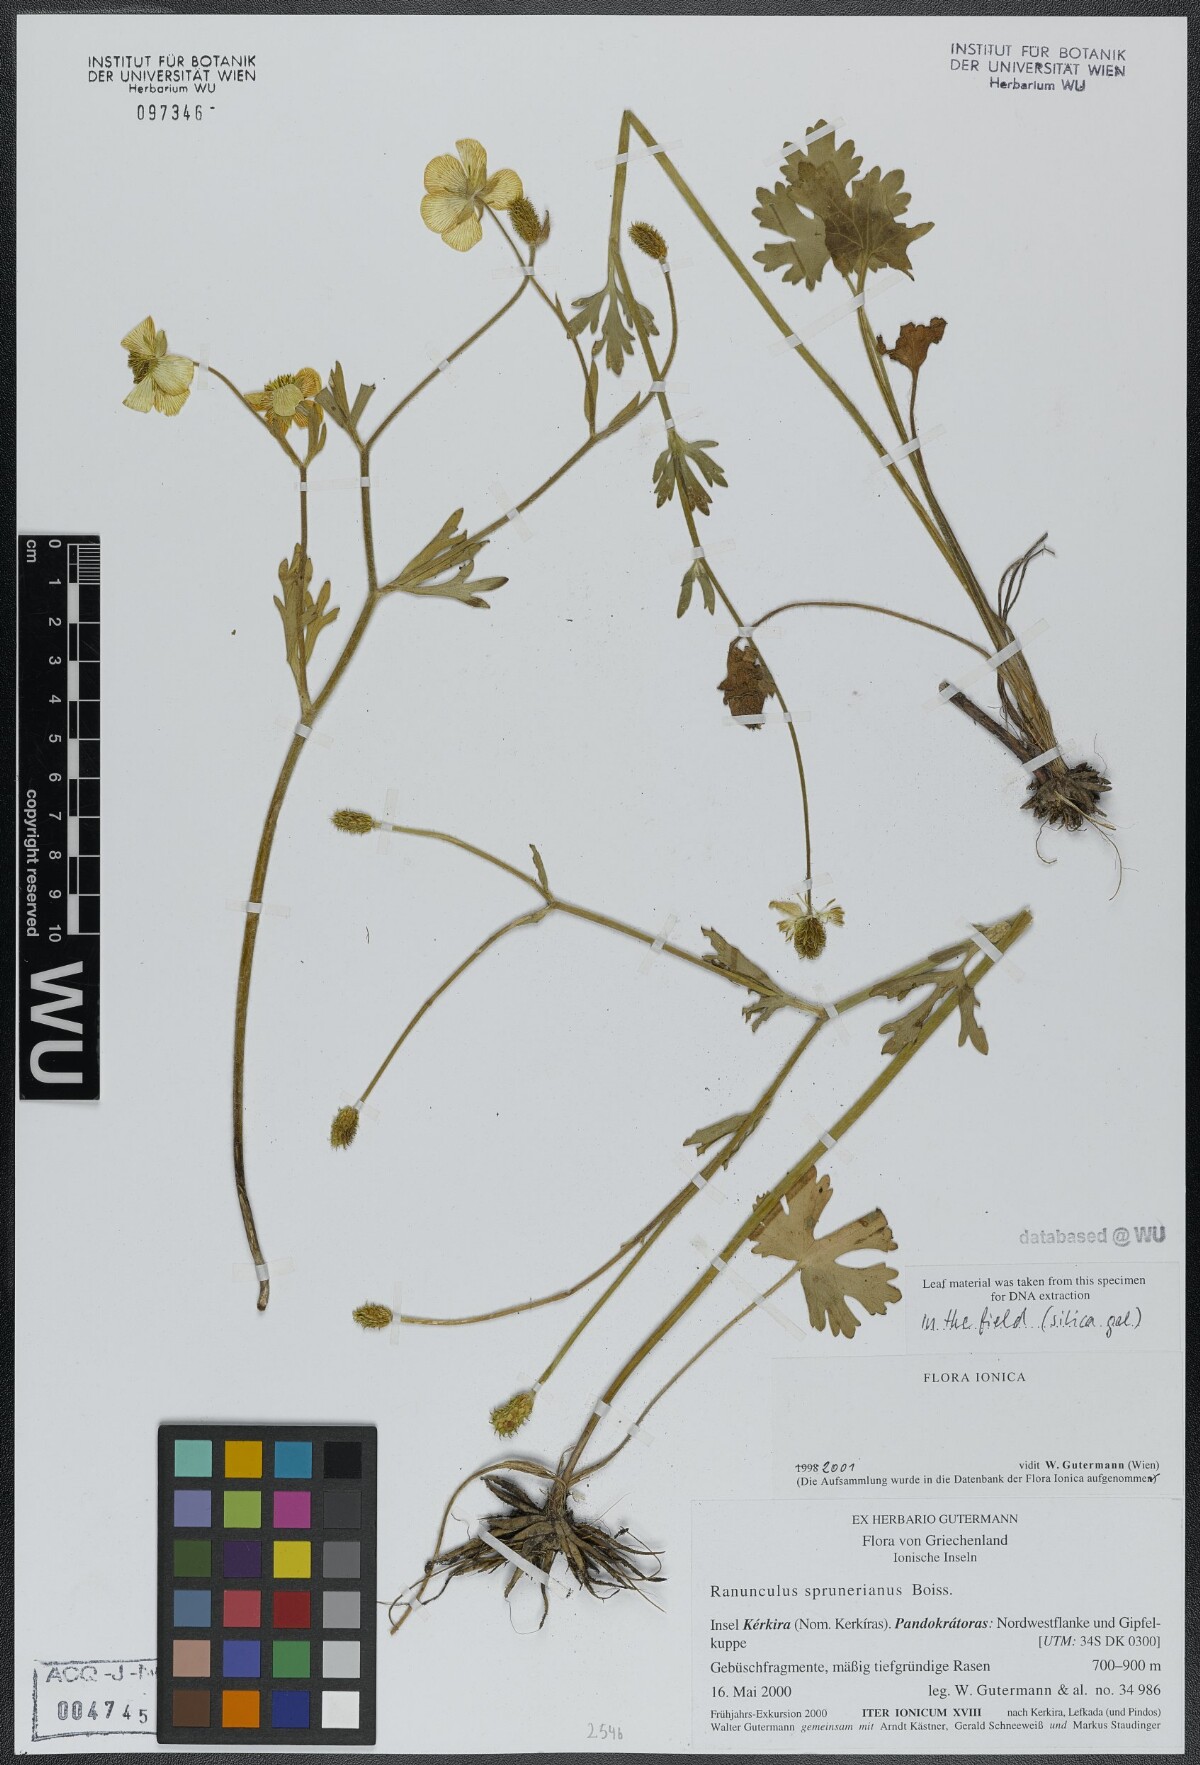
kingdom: Plantae
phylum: Tracheophyta
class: Magnoliopsida
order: Ranunculales
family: Ranunculaceae
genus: Ranunculus
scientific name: Ranunculus sprunerianus
